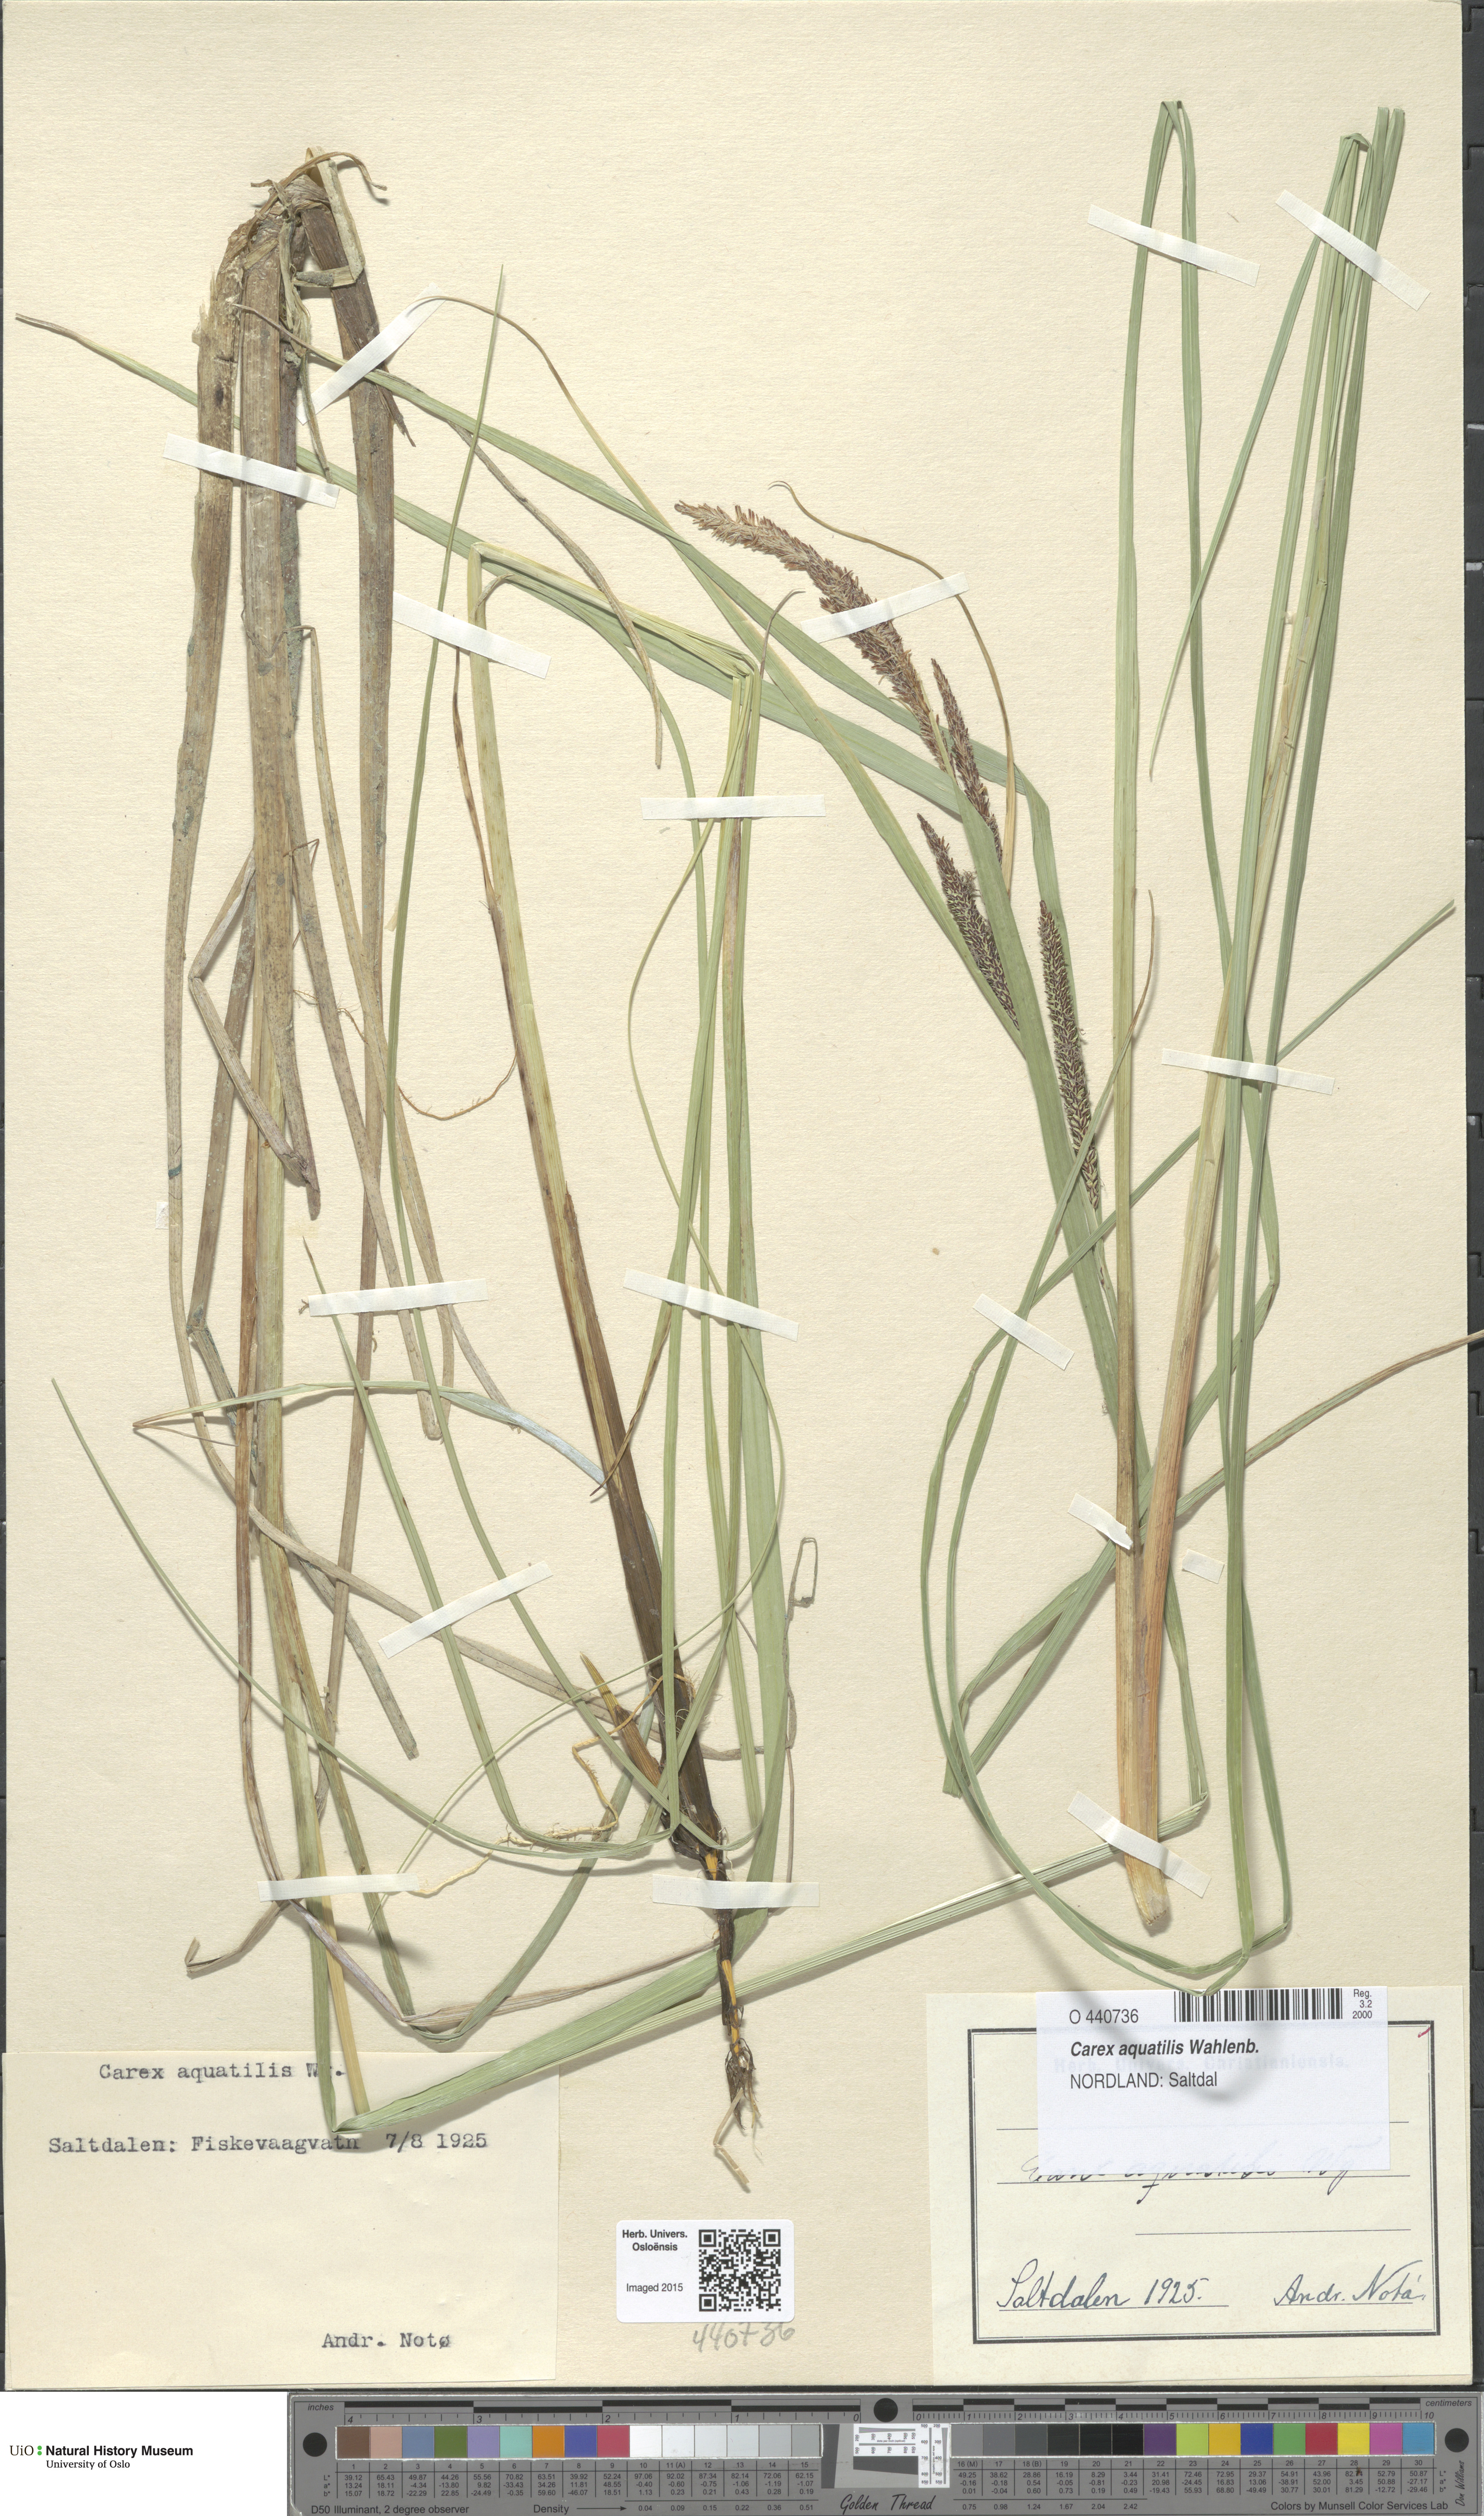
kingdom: Plantae
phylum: Tracheophyta
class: Liliopsida
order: Poales
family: Cyperaceae
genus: Carex
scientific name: Carex aquatilis
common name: Water sedge
